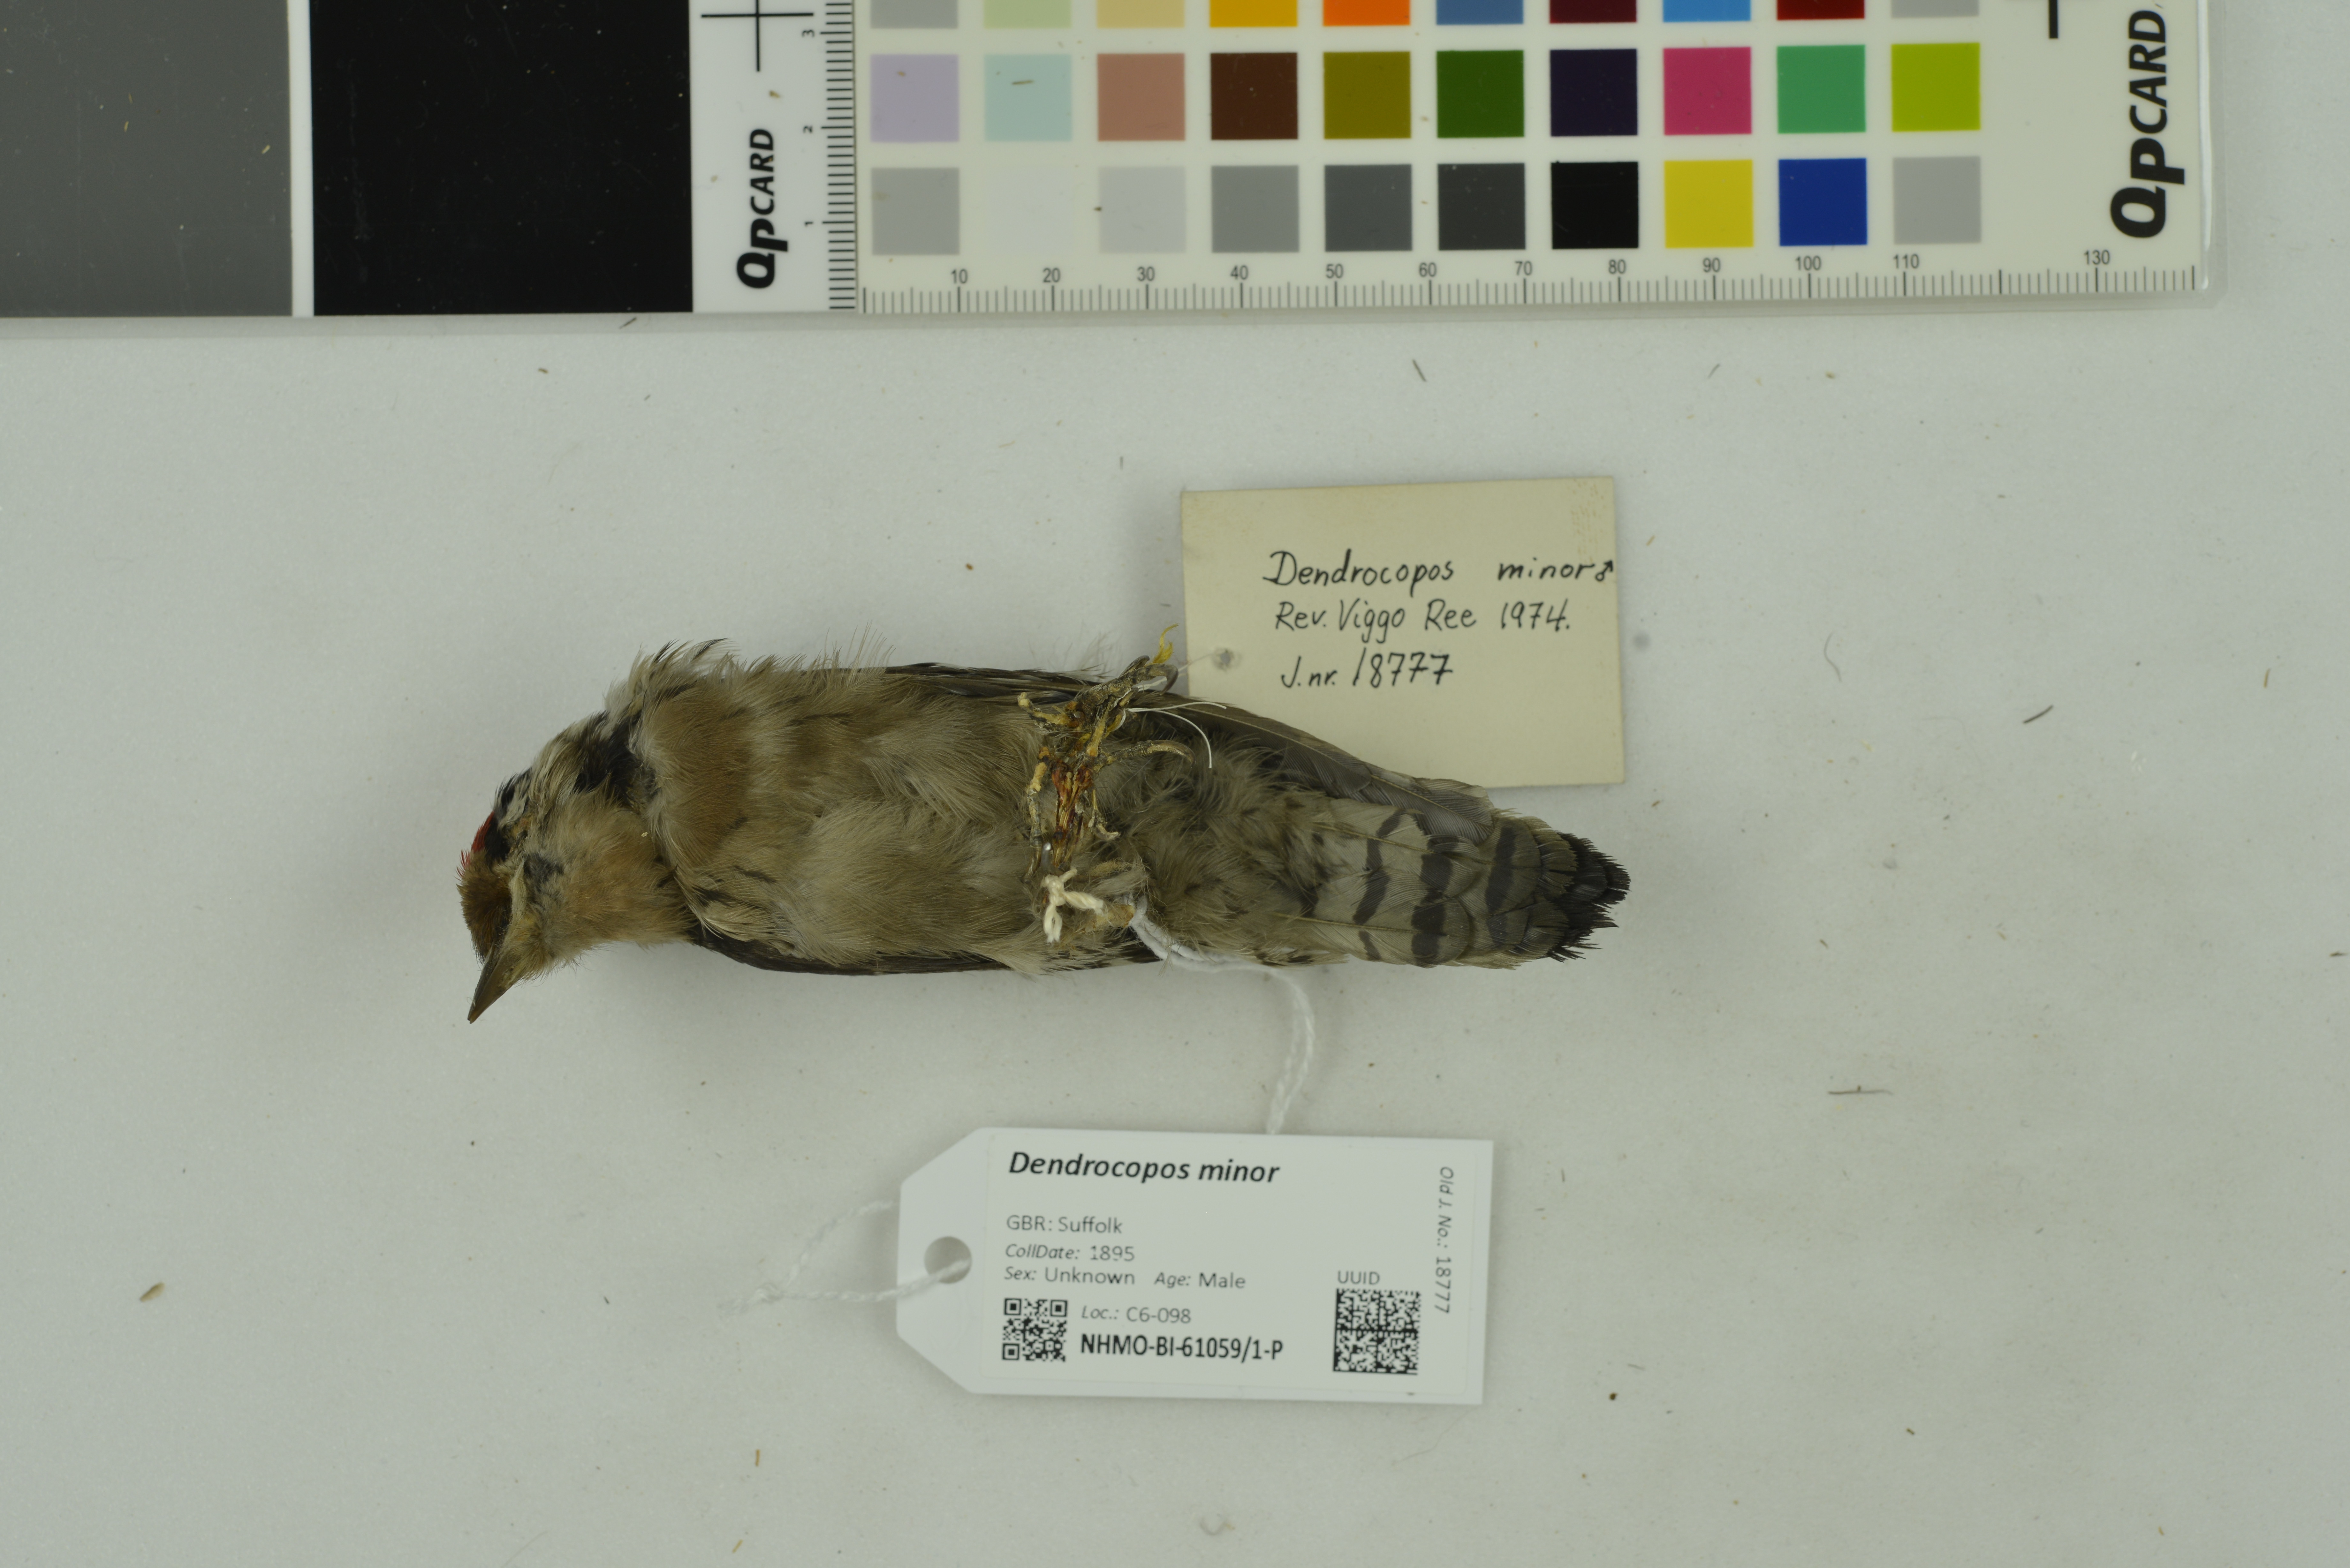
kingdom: Animalia
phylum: Chordata
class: Aves
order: Piciformes
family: Picidae
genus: Dryobates
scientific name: Dryobates minor
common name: Lesser spotted woodpecker
